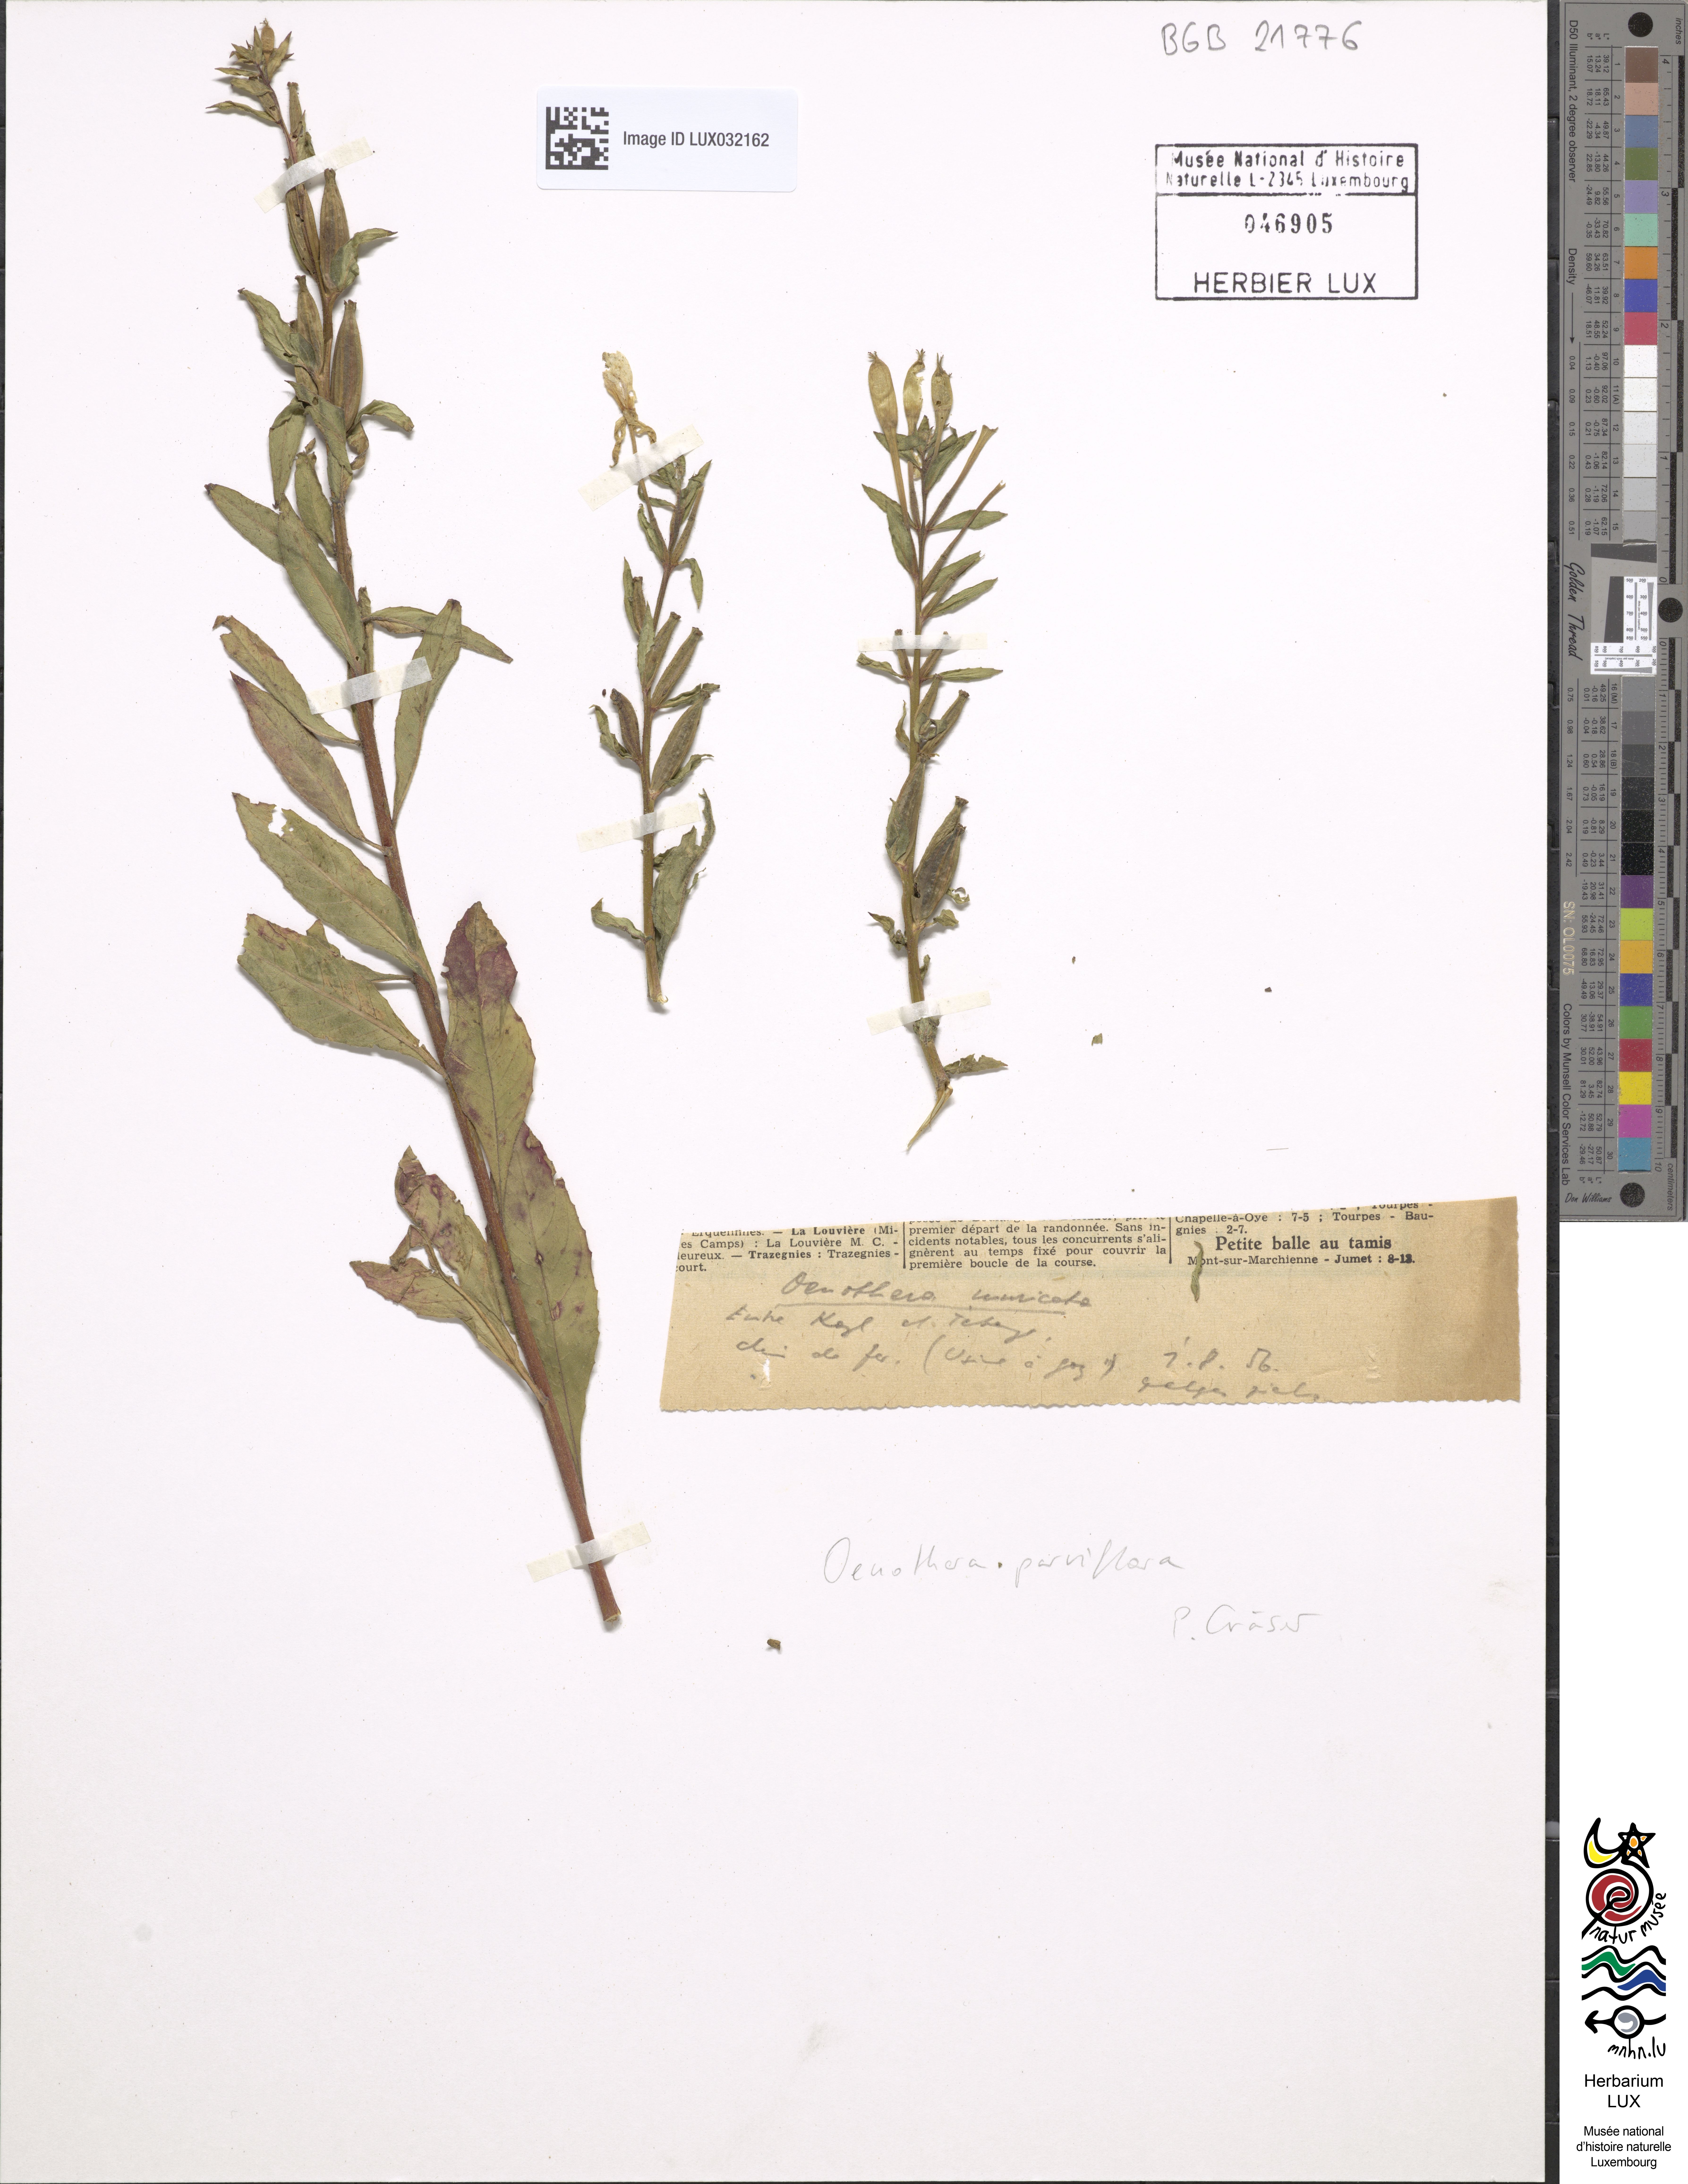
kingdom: Plantae
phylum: Tracheophyta
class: Magnoliopsida
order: Myrtales
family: Onagraceae
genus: Oenothera
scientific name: Oenothera parviflora
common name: Least evening-primrose
